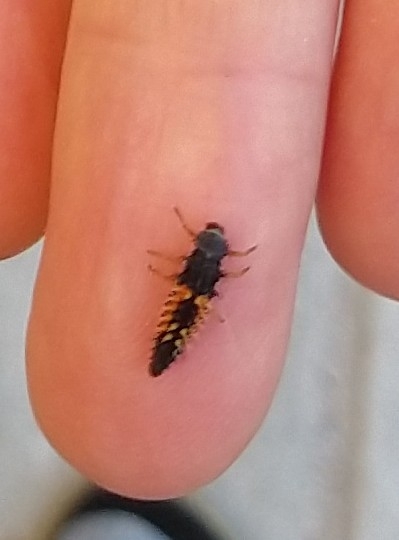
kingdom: Animalia
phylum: Arthropoda
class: Insecta
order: Coleoptera
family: Coccinellidae
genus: Harmonia
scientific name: Harmonia axyridis
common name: Harlekinmariehøne
